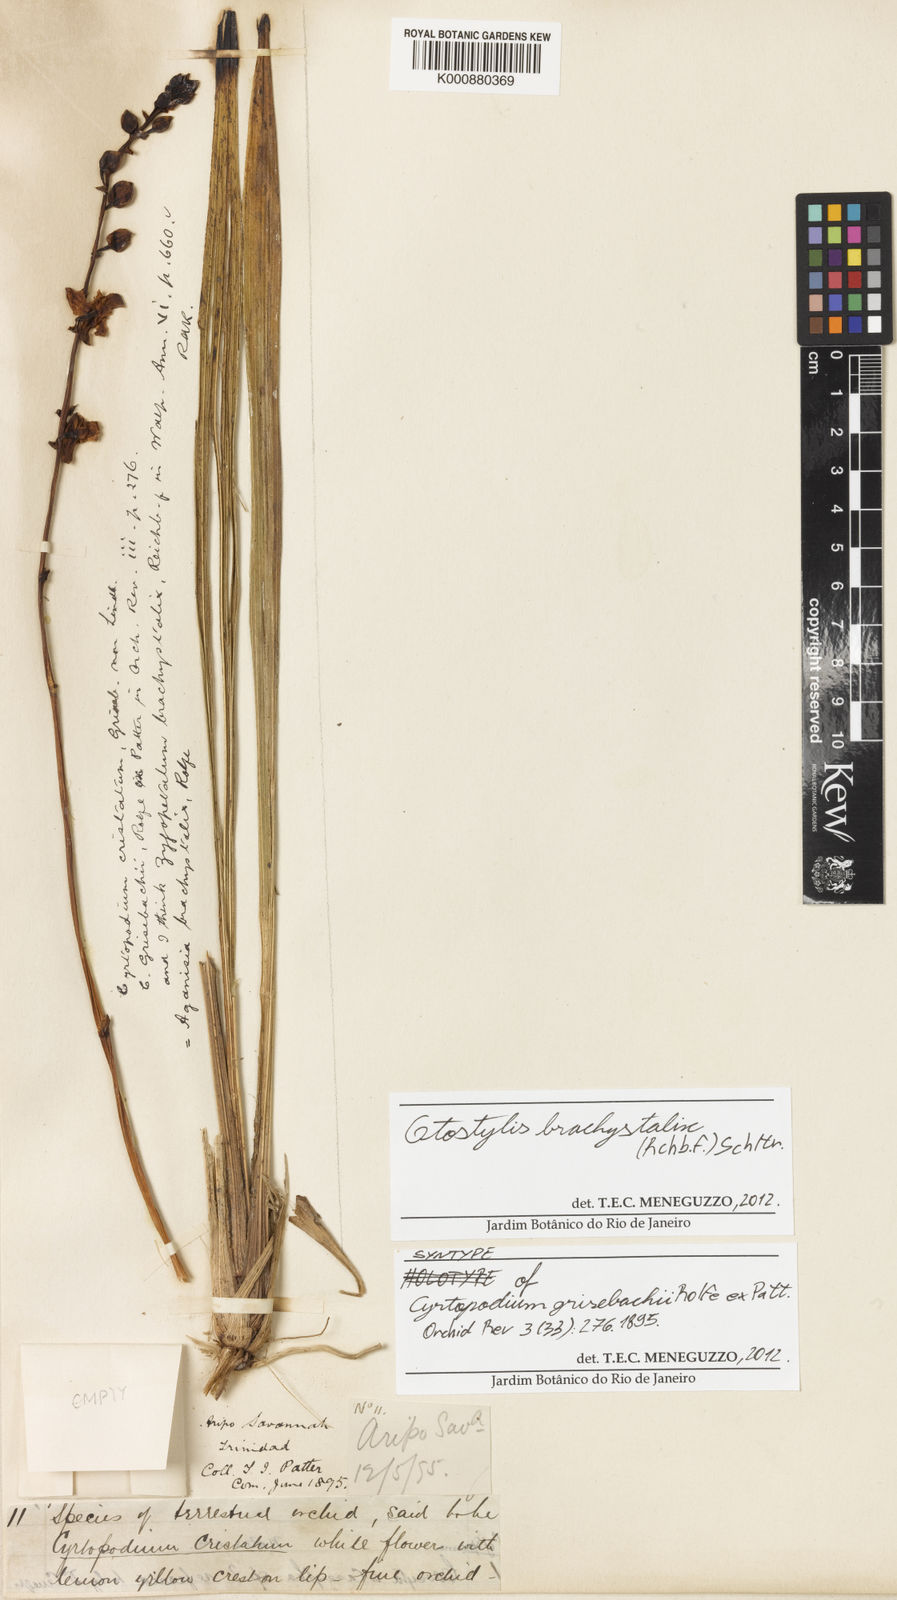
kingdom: Plantae
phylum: Tracheophyta
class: Liliopsida
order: Asparagales
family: Orchidaceae
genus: Otostylis
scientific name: Otostylis brachystalix
